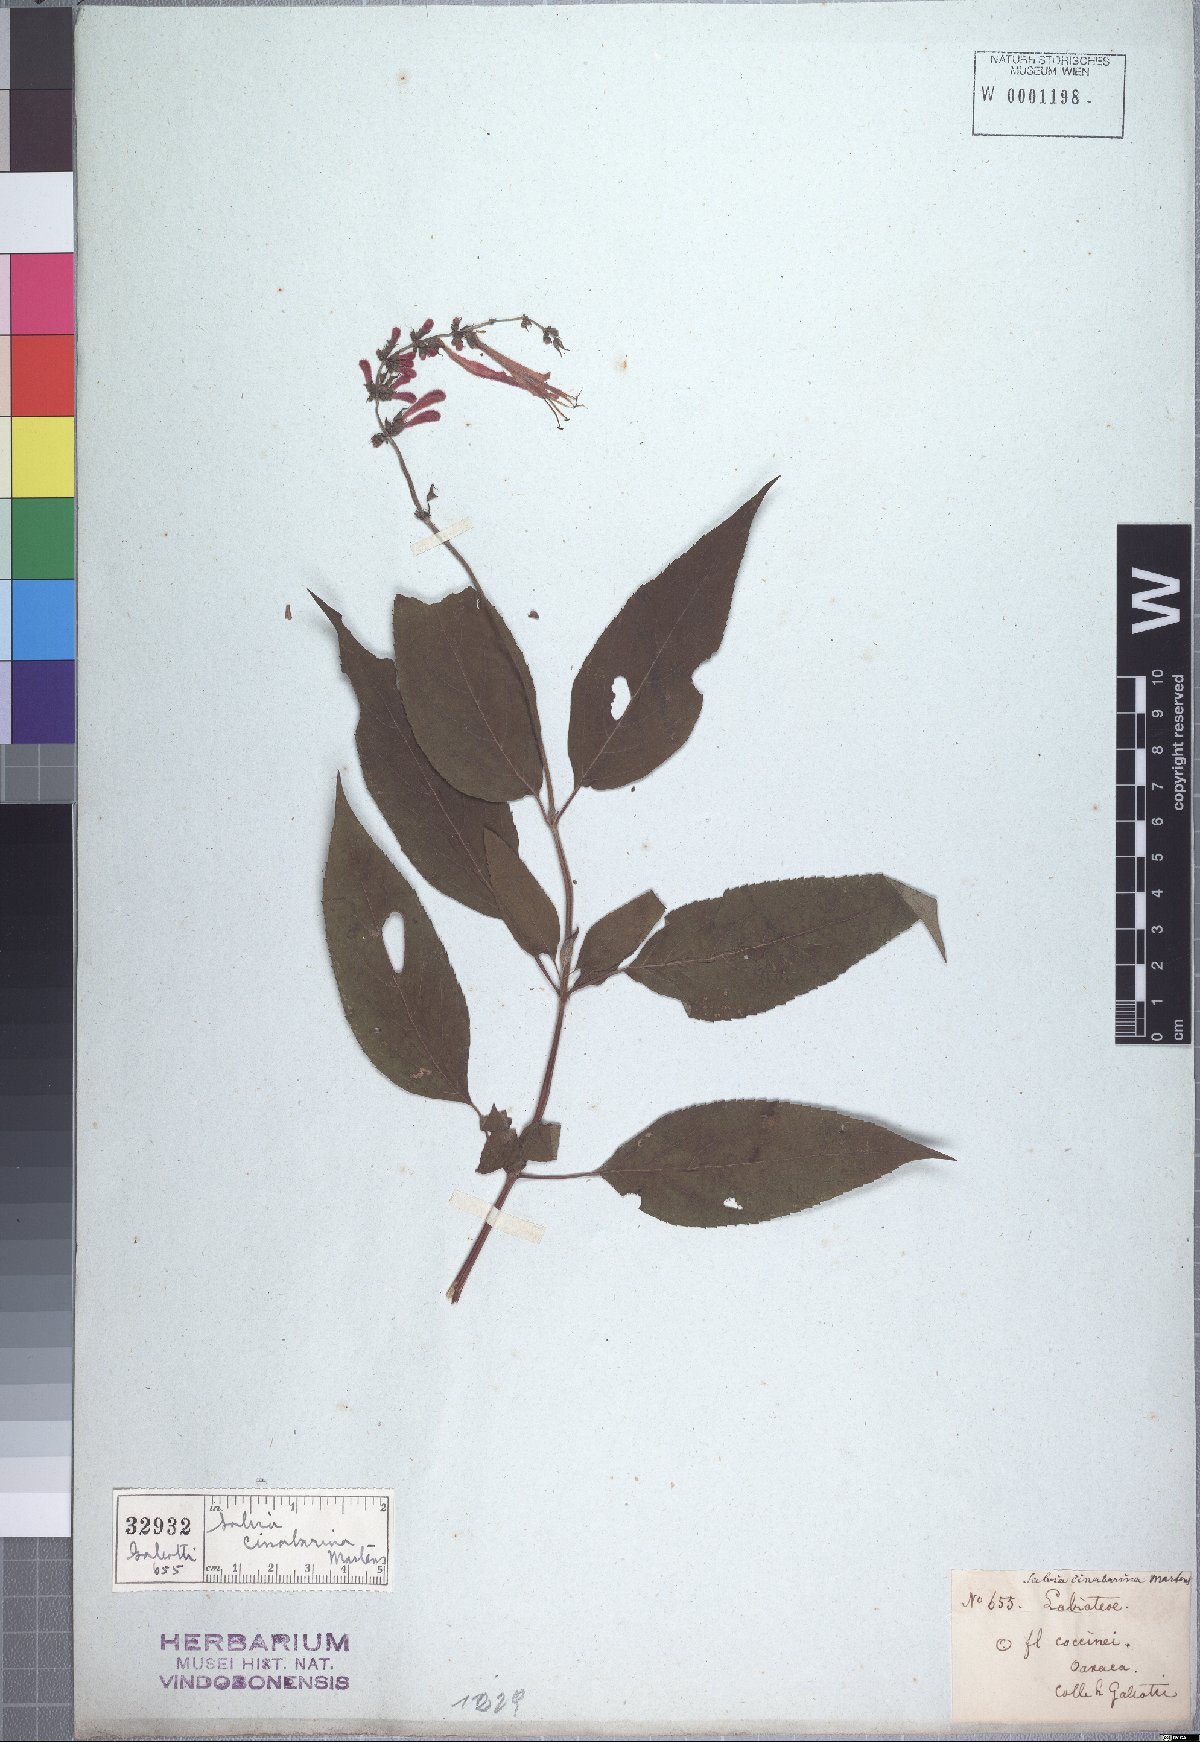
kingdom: Plantae
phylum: Tracheophyta
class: Magnoliopsida
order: Lamiales
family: Lamiaceae
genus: Salvia
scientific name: Salvia cinnabarina
